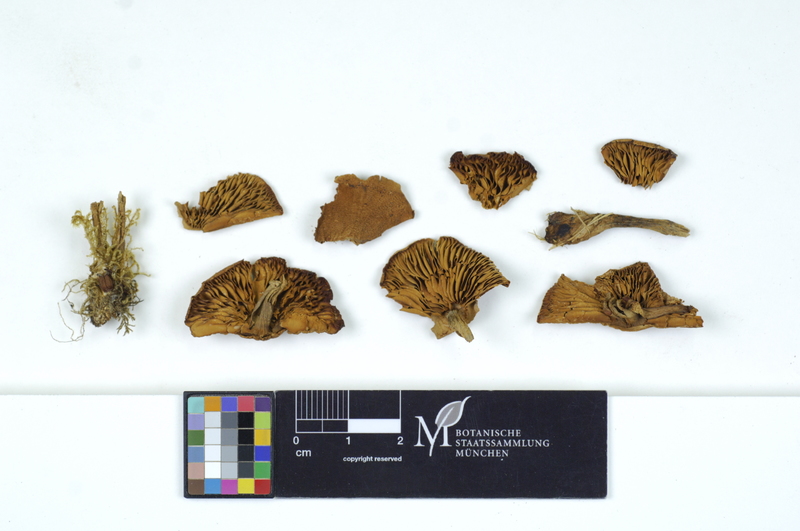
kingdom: Fungi
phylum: Basidiomycota
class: Agaricomycetes
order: Agaricales
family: Agaricaceae
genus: Cystodermella
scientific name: Cystodermella granulosa
